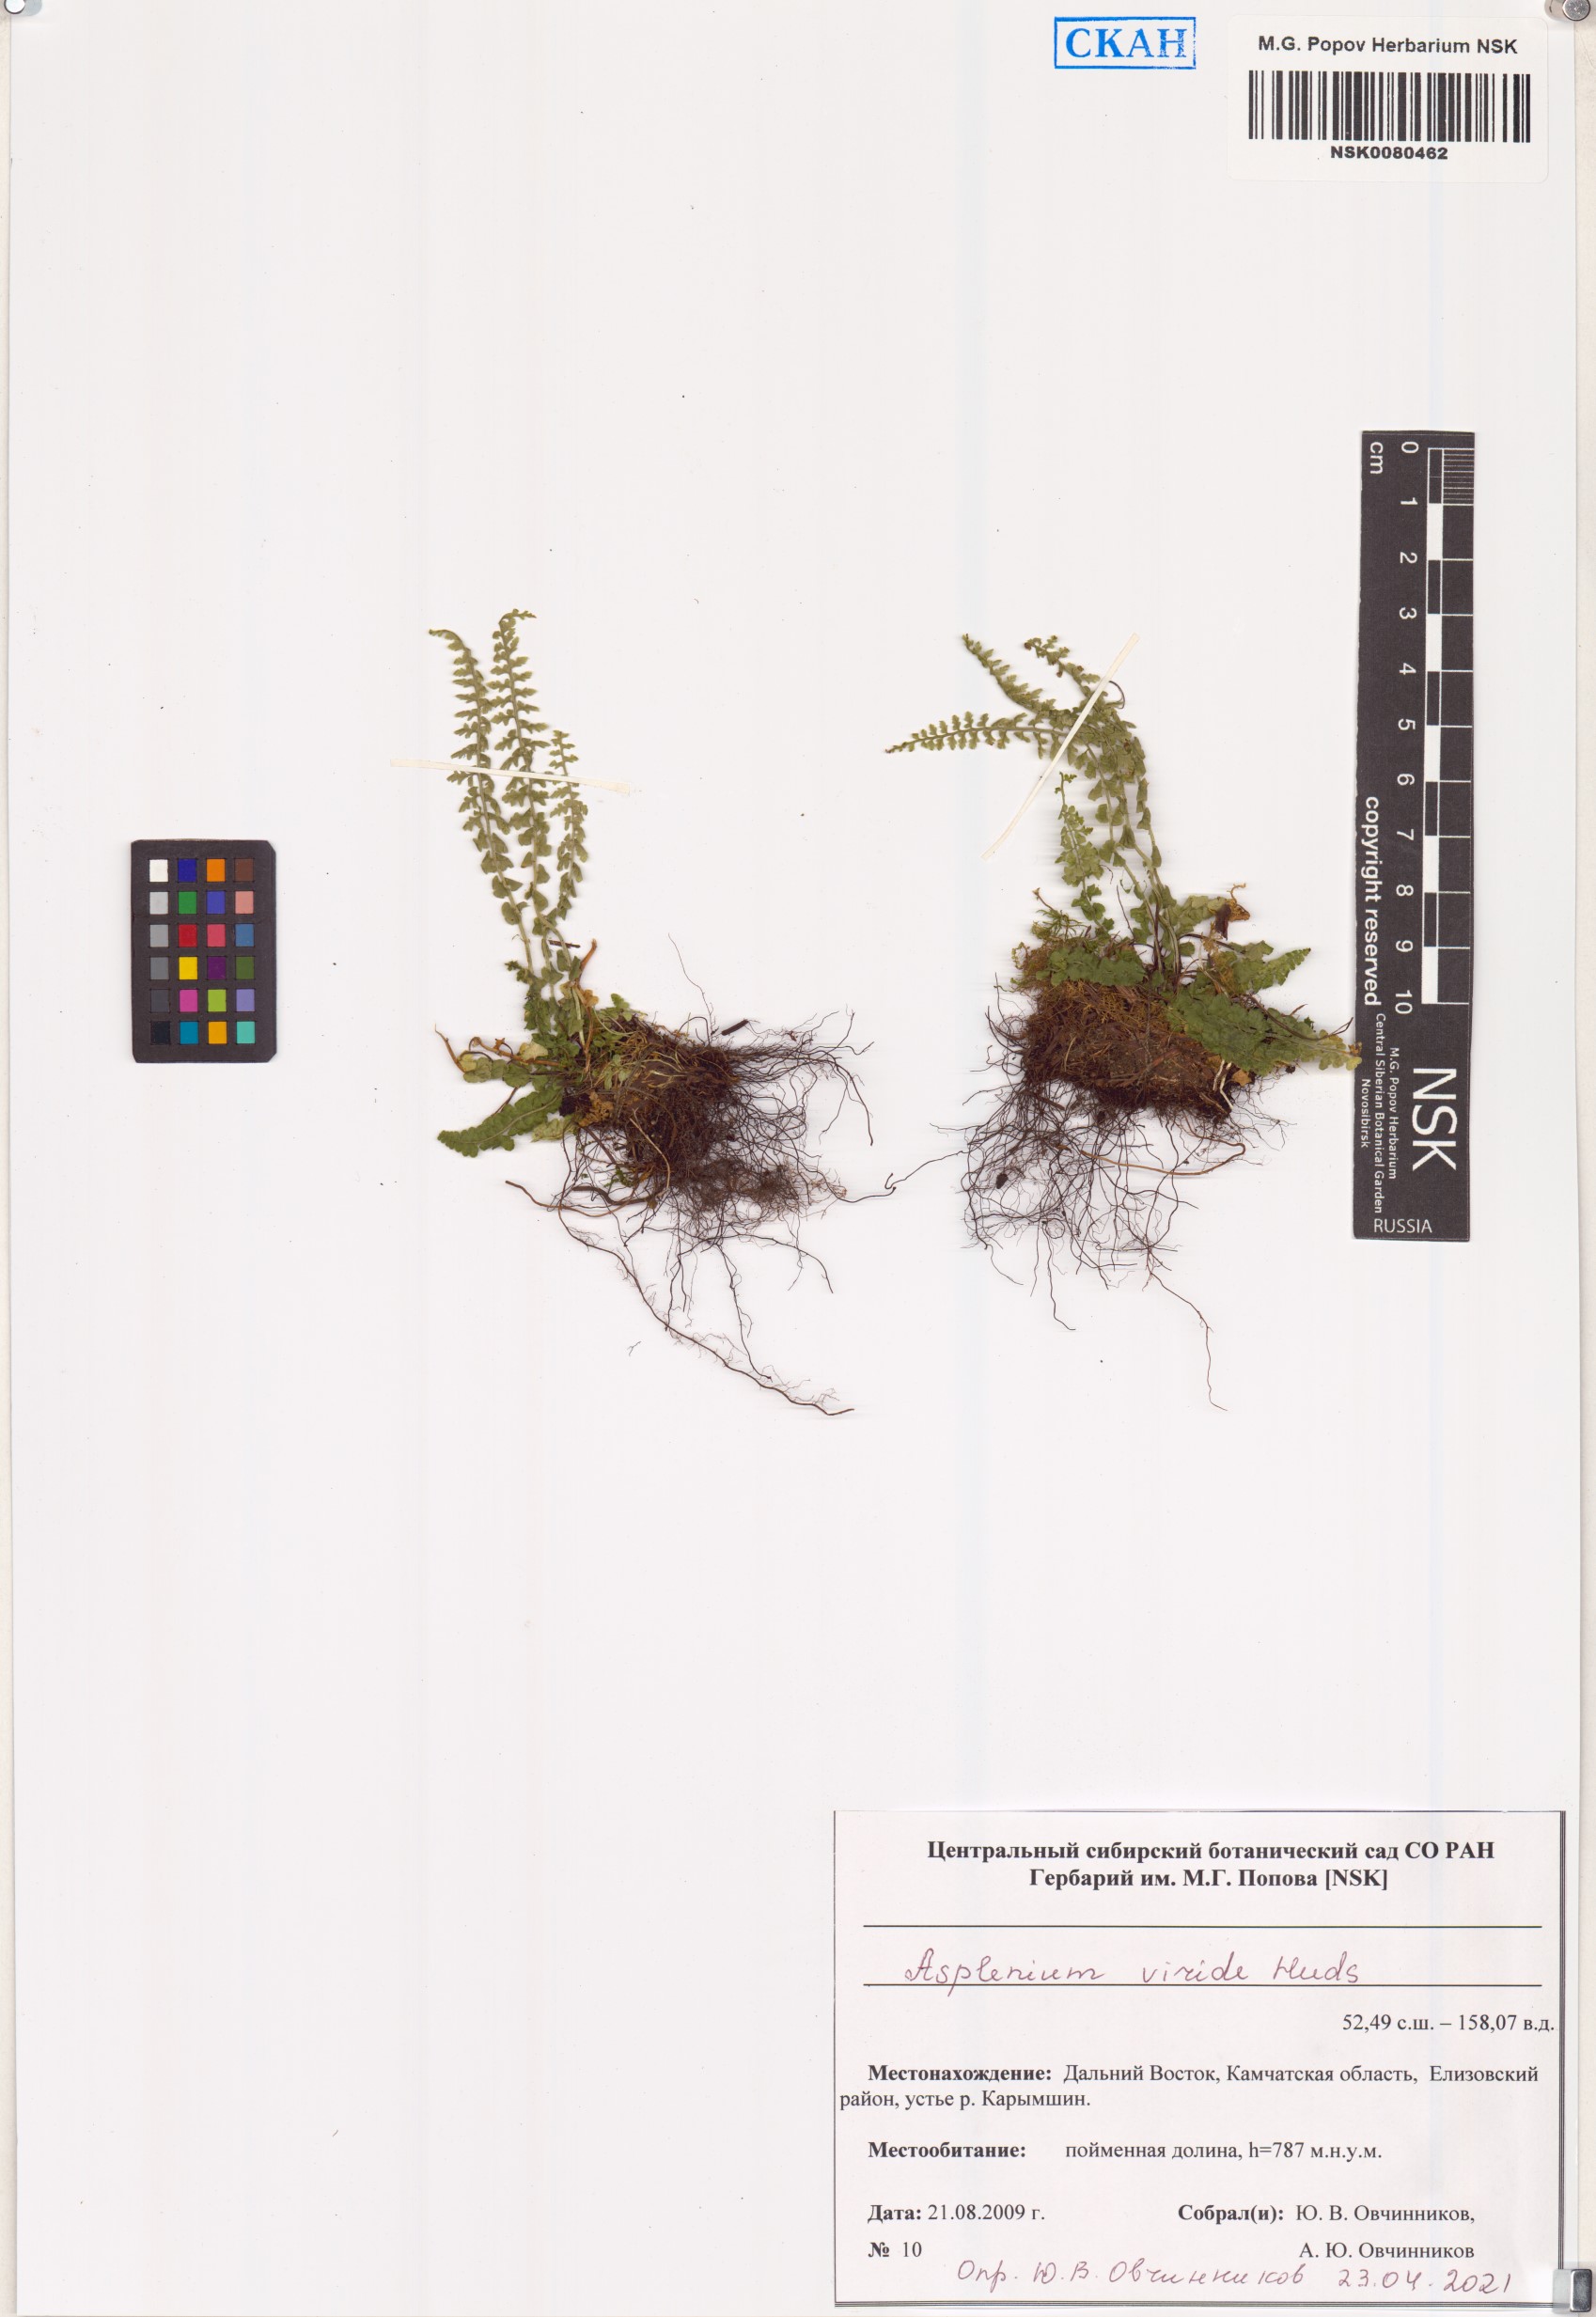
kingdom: Plantae
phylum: Tracheophyta
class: Polypodiopsida
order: Polypodiales
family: Aspleniaceae
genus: Asplenium
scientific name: Asplenium viride
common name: Green spleenwort
